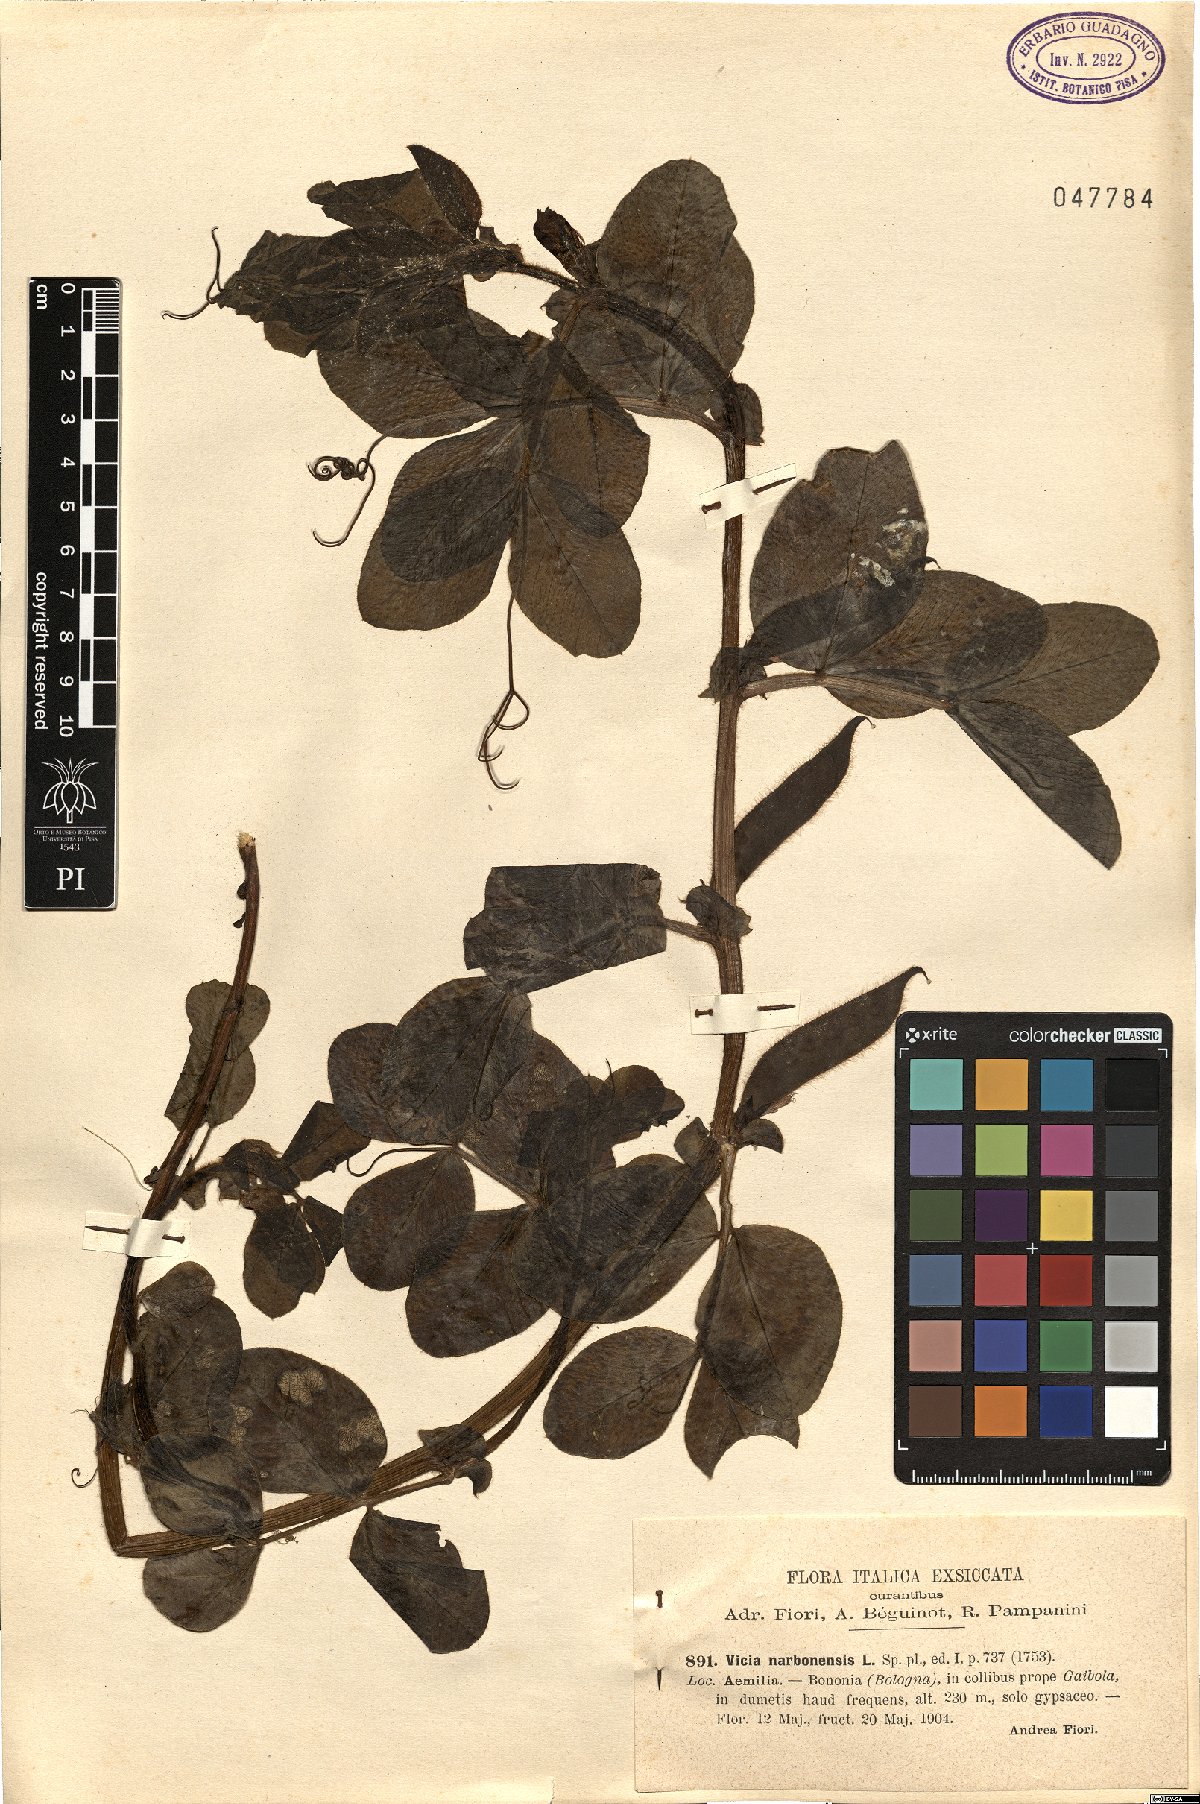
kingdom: Plantae
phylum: Tracheophyta
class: Magnoliopsida
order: Fabales
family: Fabaceae
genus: Vicia
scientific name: Vicia narbonensis
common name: Narbonne vetch
